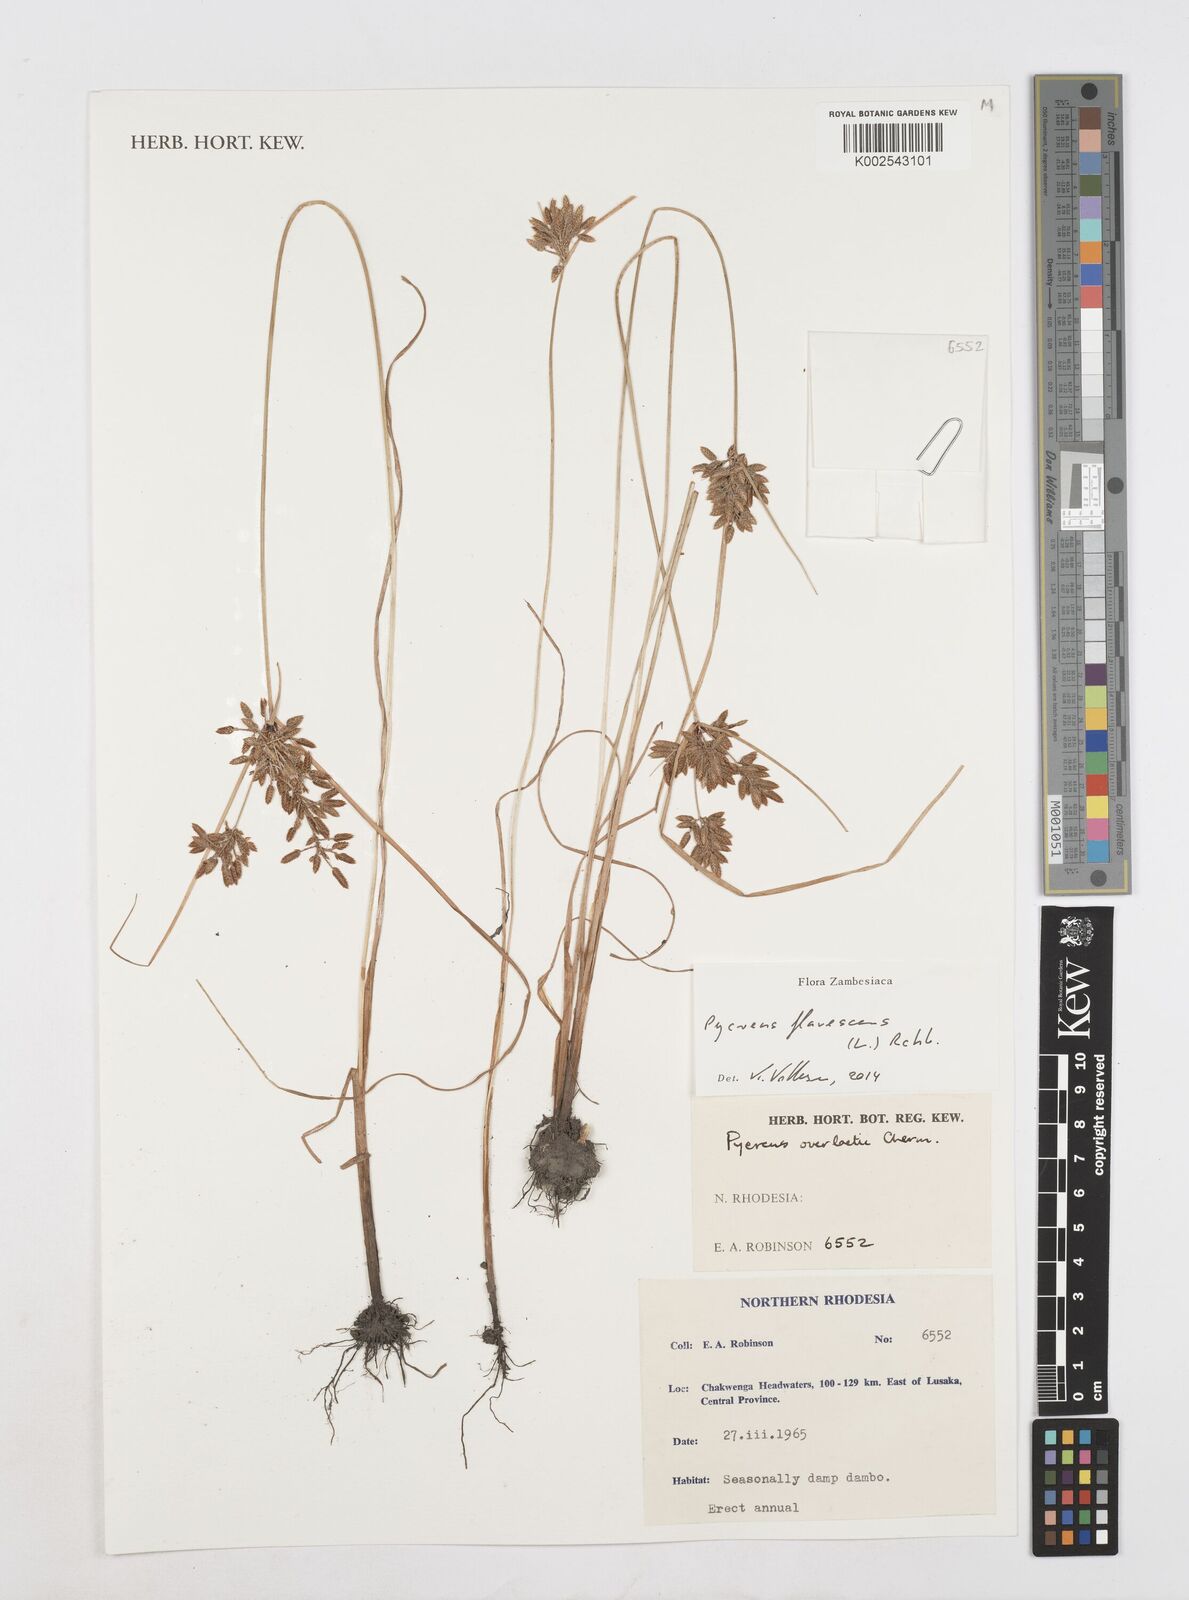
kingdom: Plantae
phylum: Tracheophyta
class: Liliopsida
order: Poales
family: Cyperaceae
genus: Cyperus
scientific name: Cyperus flavescens
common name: Yellow galingale
